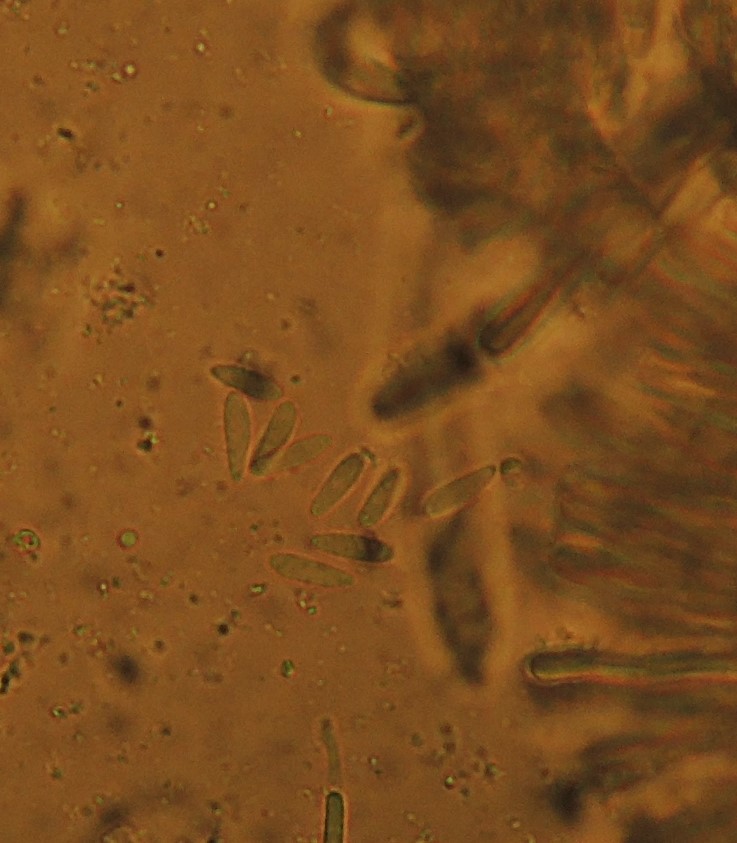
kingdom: Fungi
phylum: Ascomycota
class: Leotiomycetes
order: Helotiales
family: Mollisiaceae
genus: Mollisia
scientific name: Mollisia
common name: gråskive
